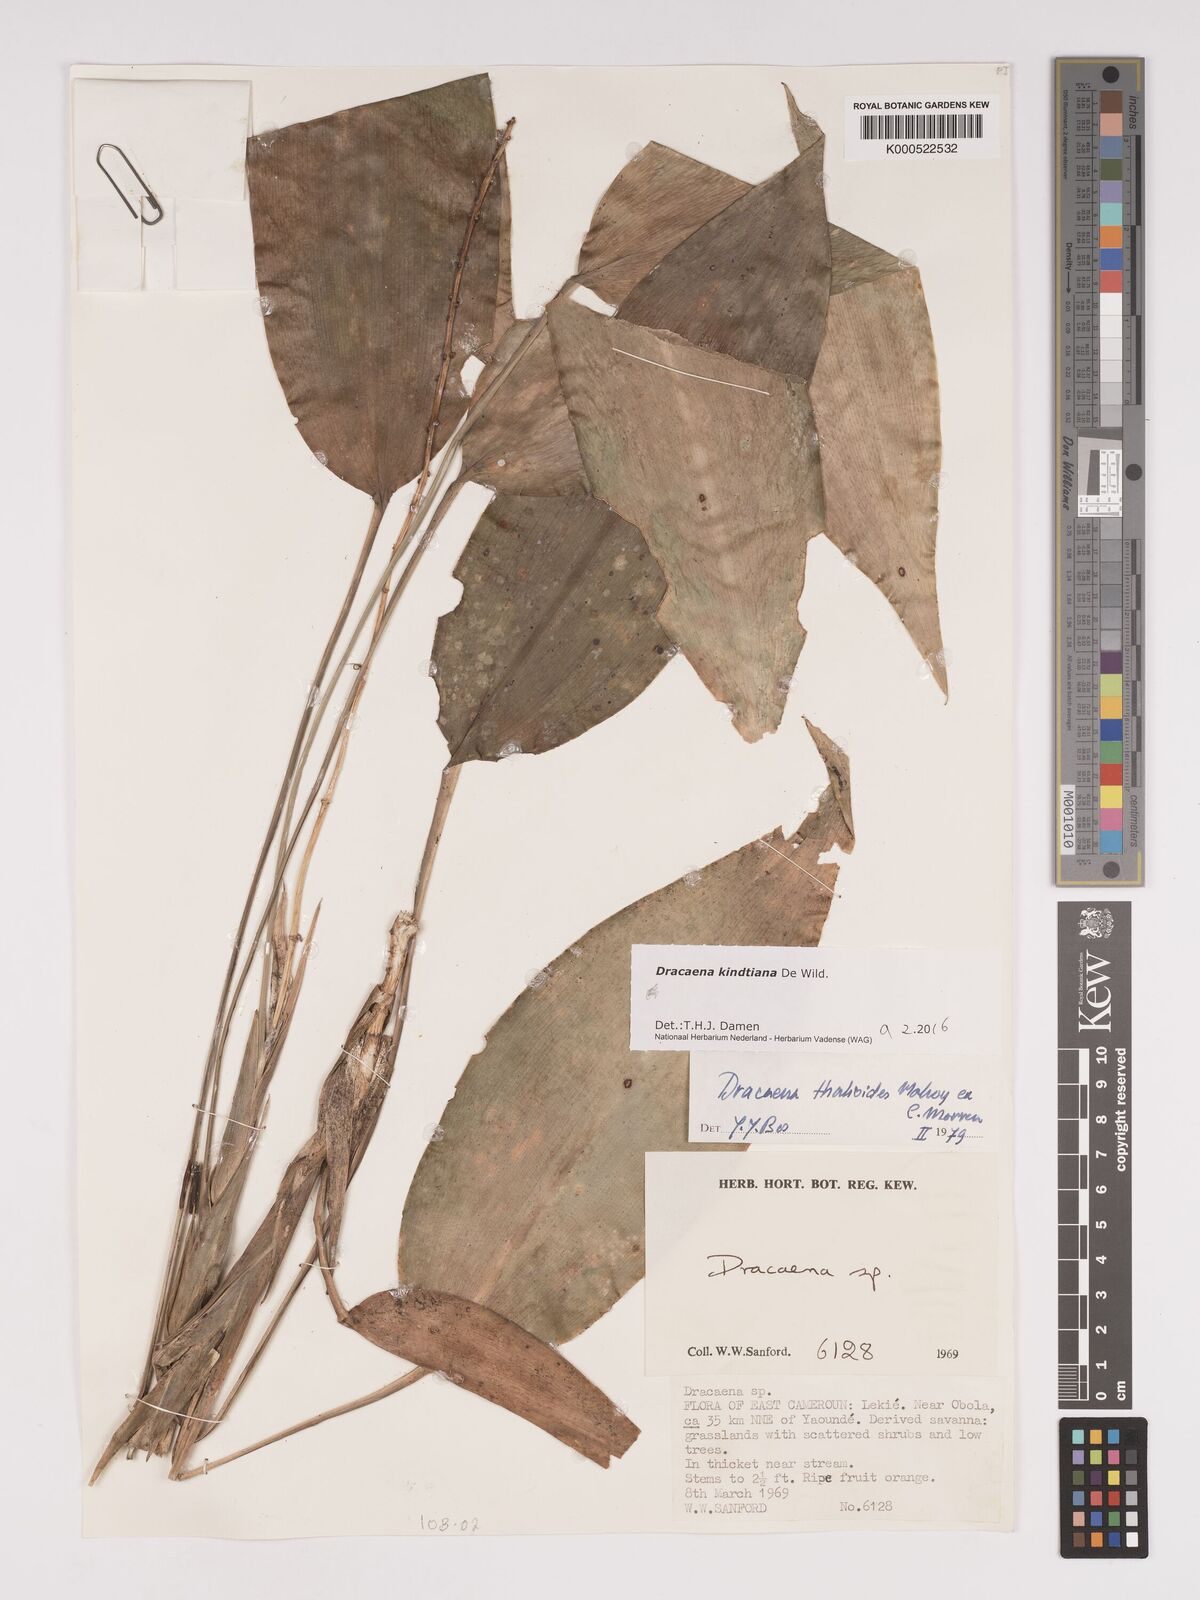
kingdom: Plantae
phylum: Tracheophyta
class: Liliopsida
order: Asparagales
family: Asparagaceae
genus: Dracaena
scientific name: Dracaena kindtiana
